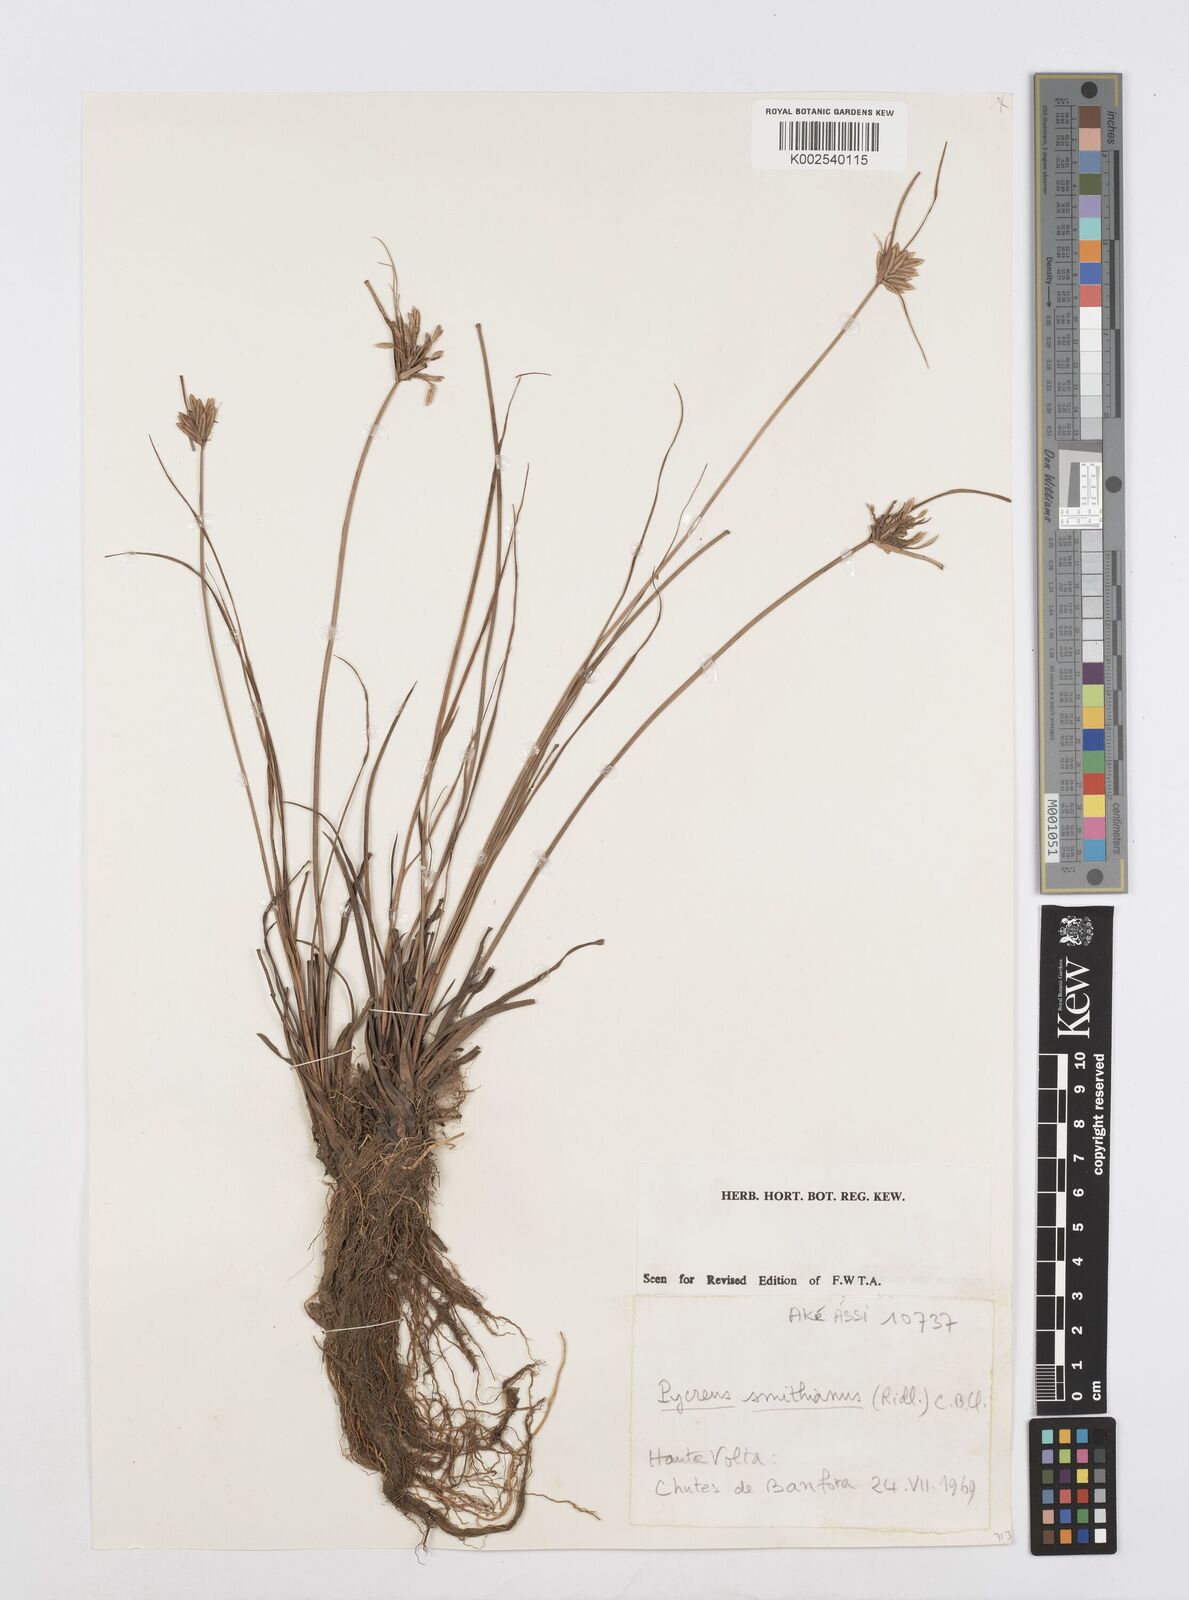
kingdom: Plantae
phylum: Tracheophyta
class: Liliopsida
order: Poales
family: Cyperaceae
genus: Cyperus
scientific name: Cyperus smithianus
